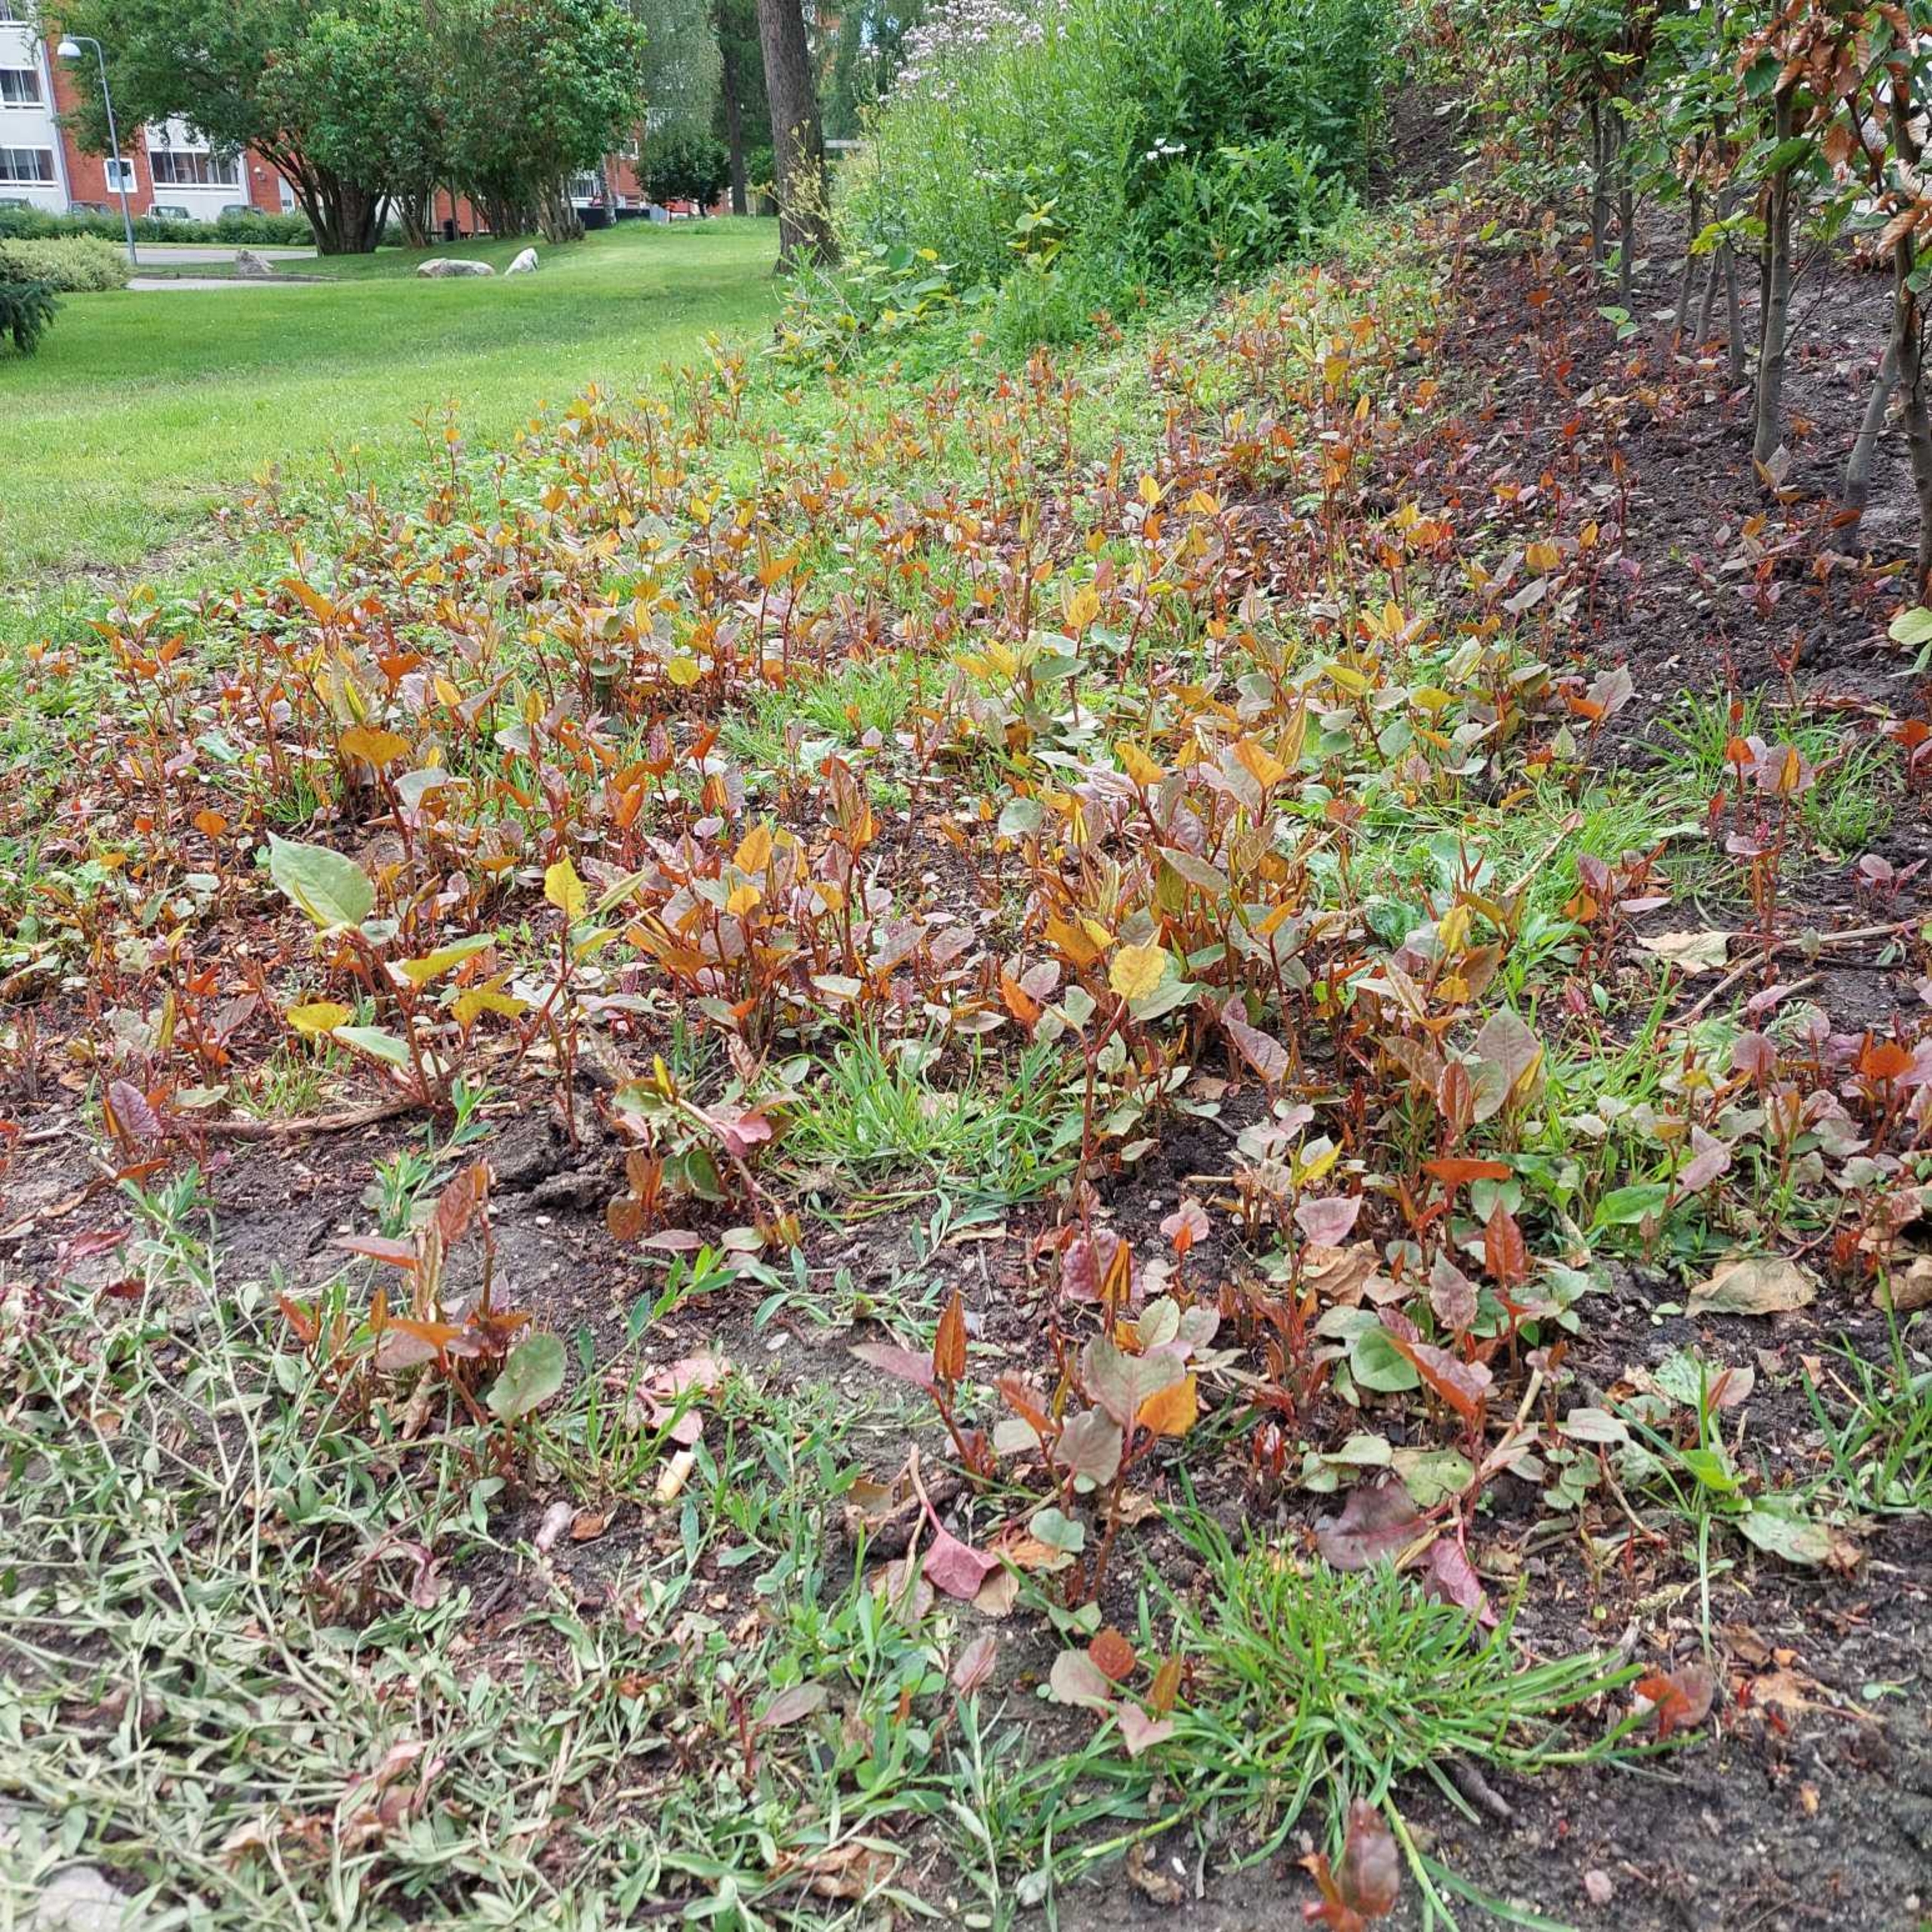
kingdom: Plantae
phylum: Tracheophyta
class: Magnoliopsida
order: Caryophyllales
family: Polygonaceae
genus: Reynoutria
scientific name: Reynoutria japonica
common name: Japan-pileurt
